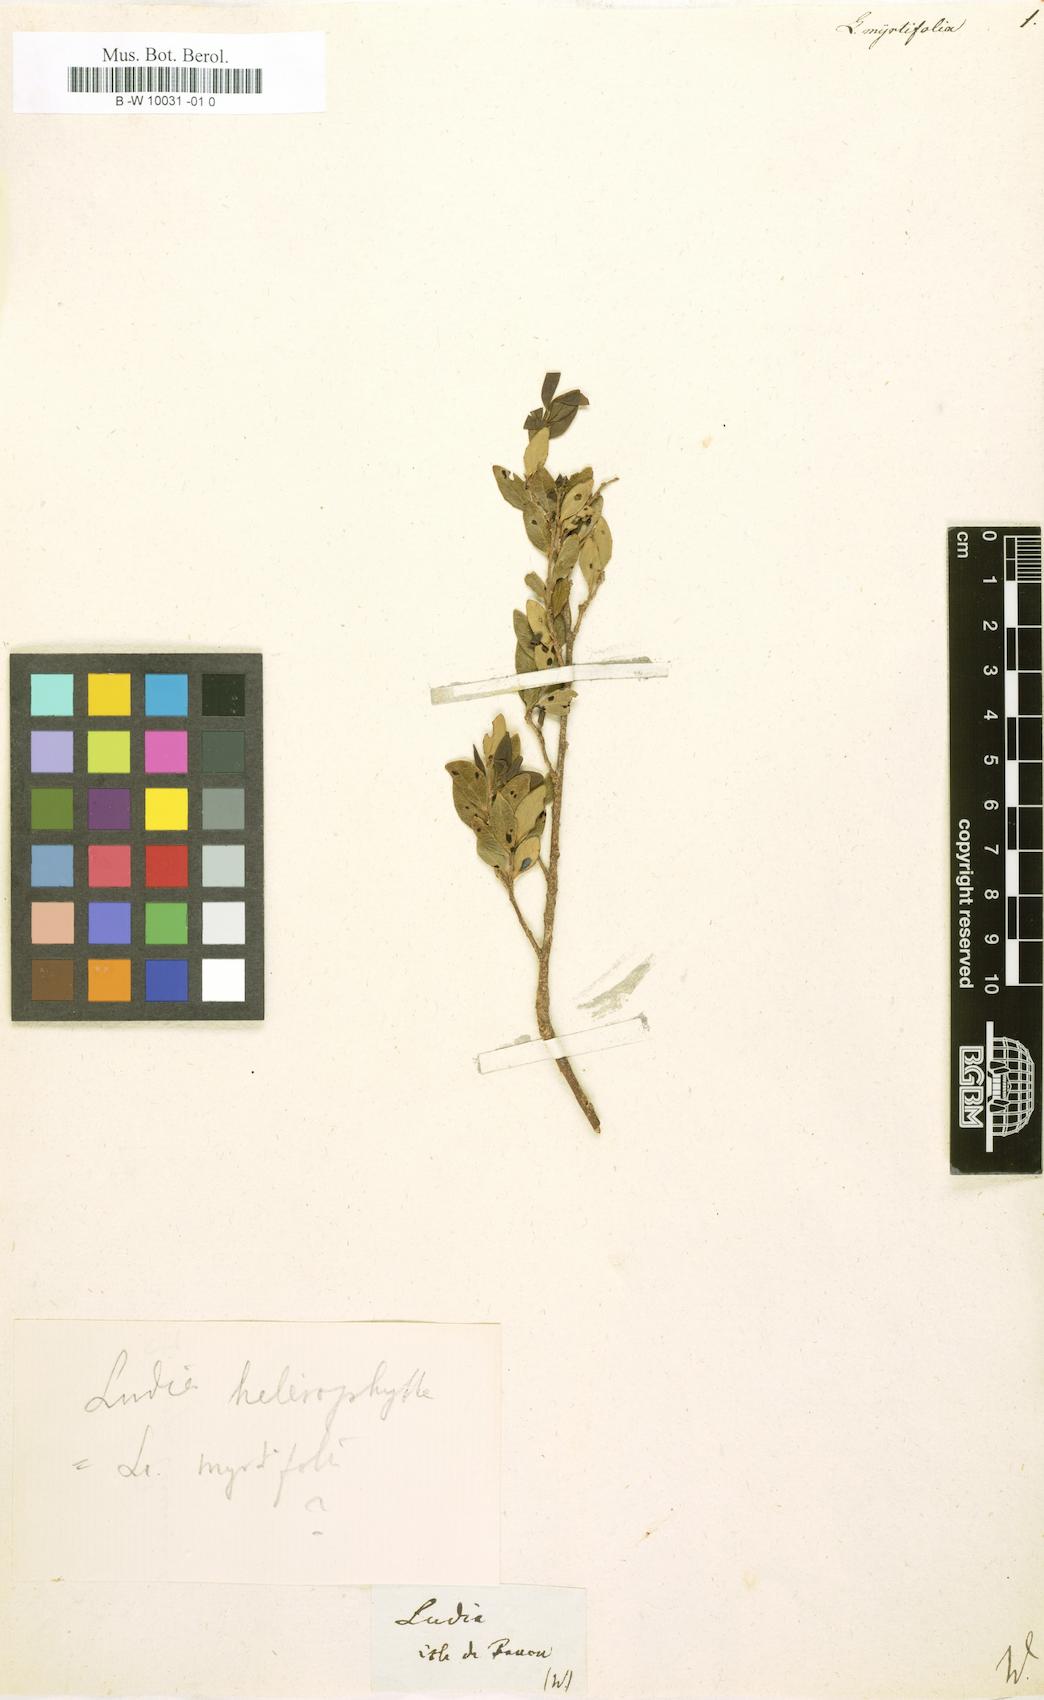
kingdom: Plantae
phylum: Tracheophyta
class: Magnoliopsida
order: Malpighiales
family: Salicaceae
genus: Scolopia
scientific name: Scolopia heterophylla
